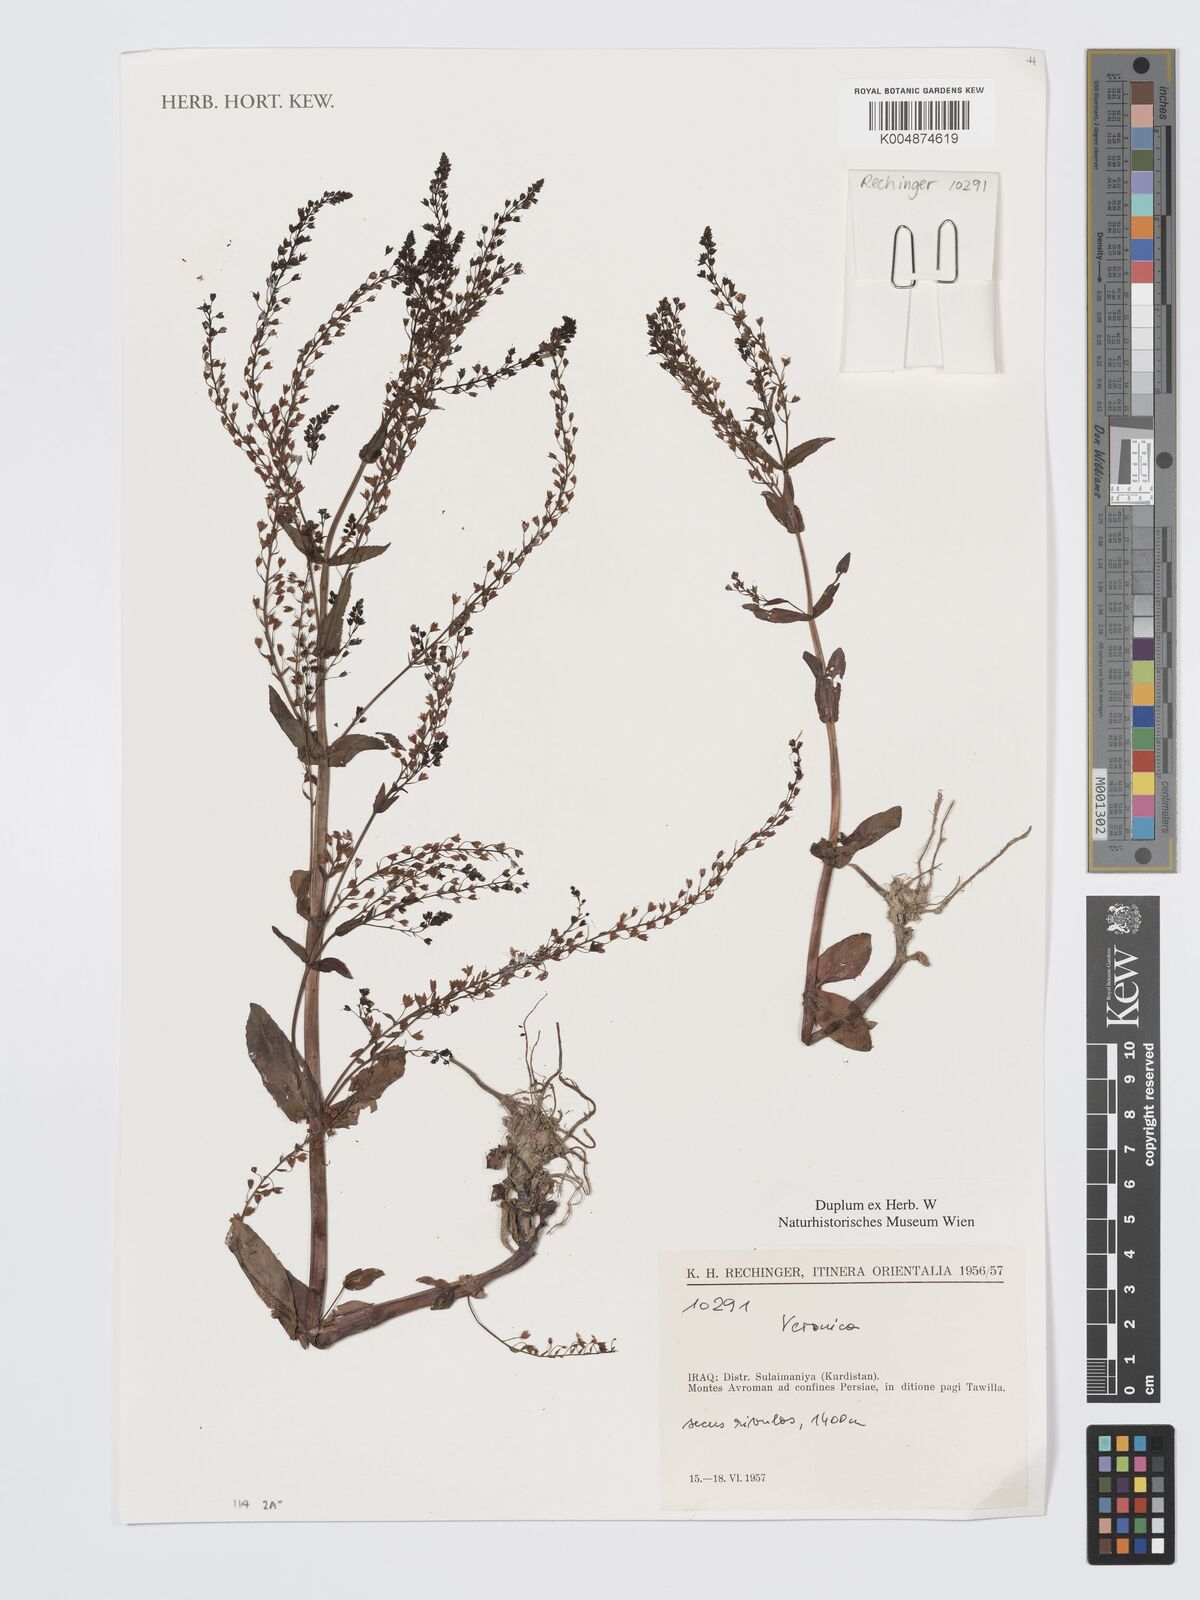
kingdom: Plantae
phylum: Tracheophyta
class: Magnoliopsida
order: Lamiales
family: Plantaginaceae
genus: Veronica
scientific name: Veronica
